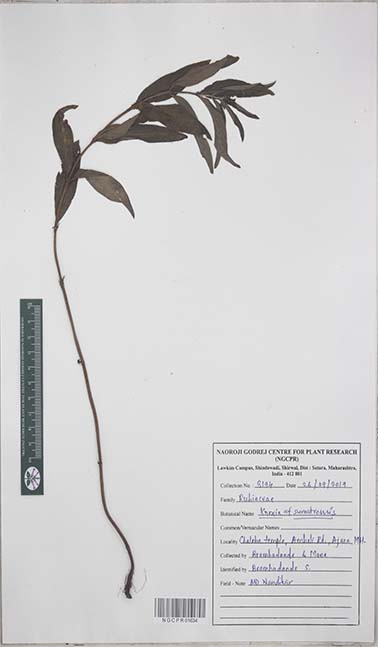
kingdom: Plantae
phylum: Tracheophyta
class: Magnoliopsida
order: Gentianales
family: Rubiaceae
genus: Knoxia
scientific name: Knoxia
